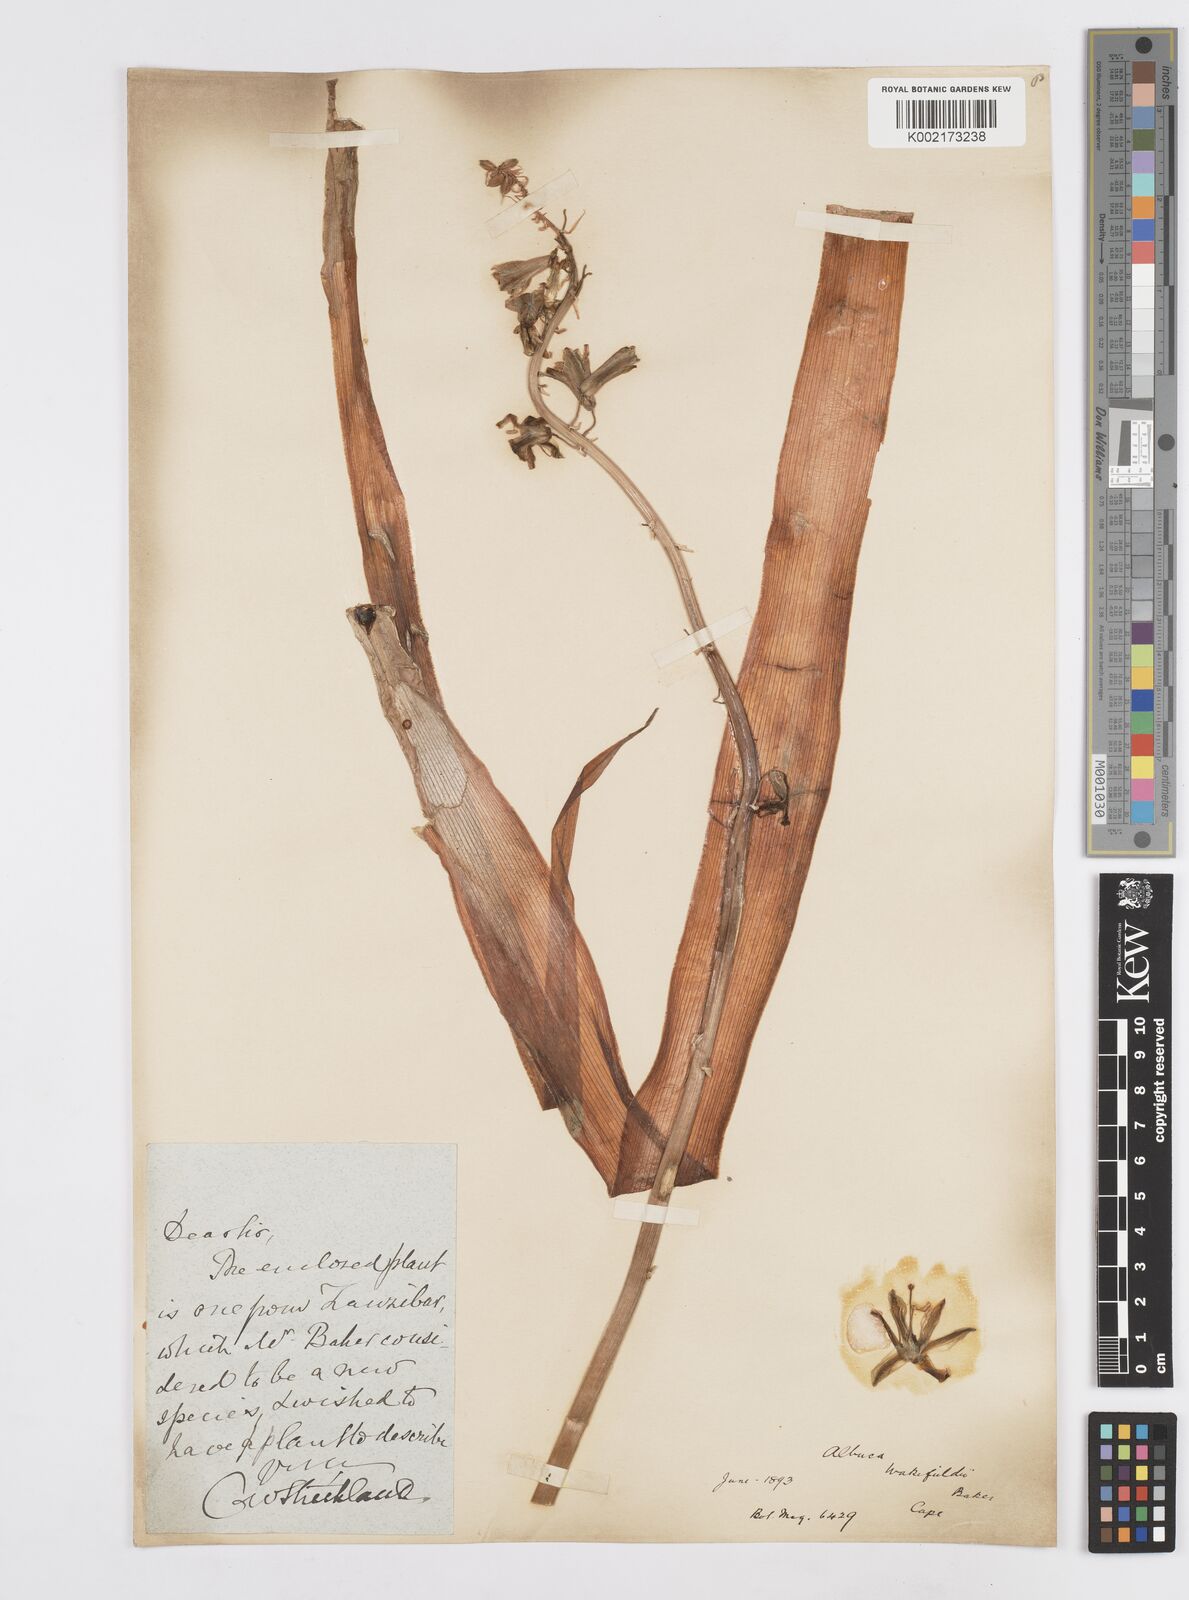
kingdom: Plantae
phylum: Tracheophyta
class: Liliopsida
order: Asparagales
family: Asparagaceae
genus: Albuca
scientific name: Albuca abyssinica
